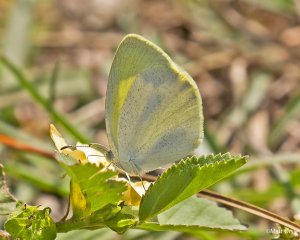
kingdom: Animalia
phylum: Arthropoda
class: Insecta
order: Lepidoptera
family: Pieridae
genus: Eurema
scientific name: Eurema daira
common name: Barred Yellow
